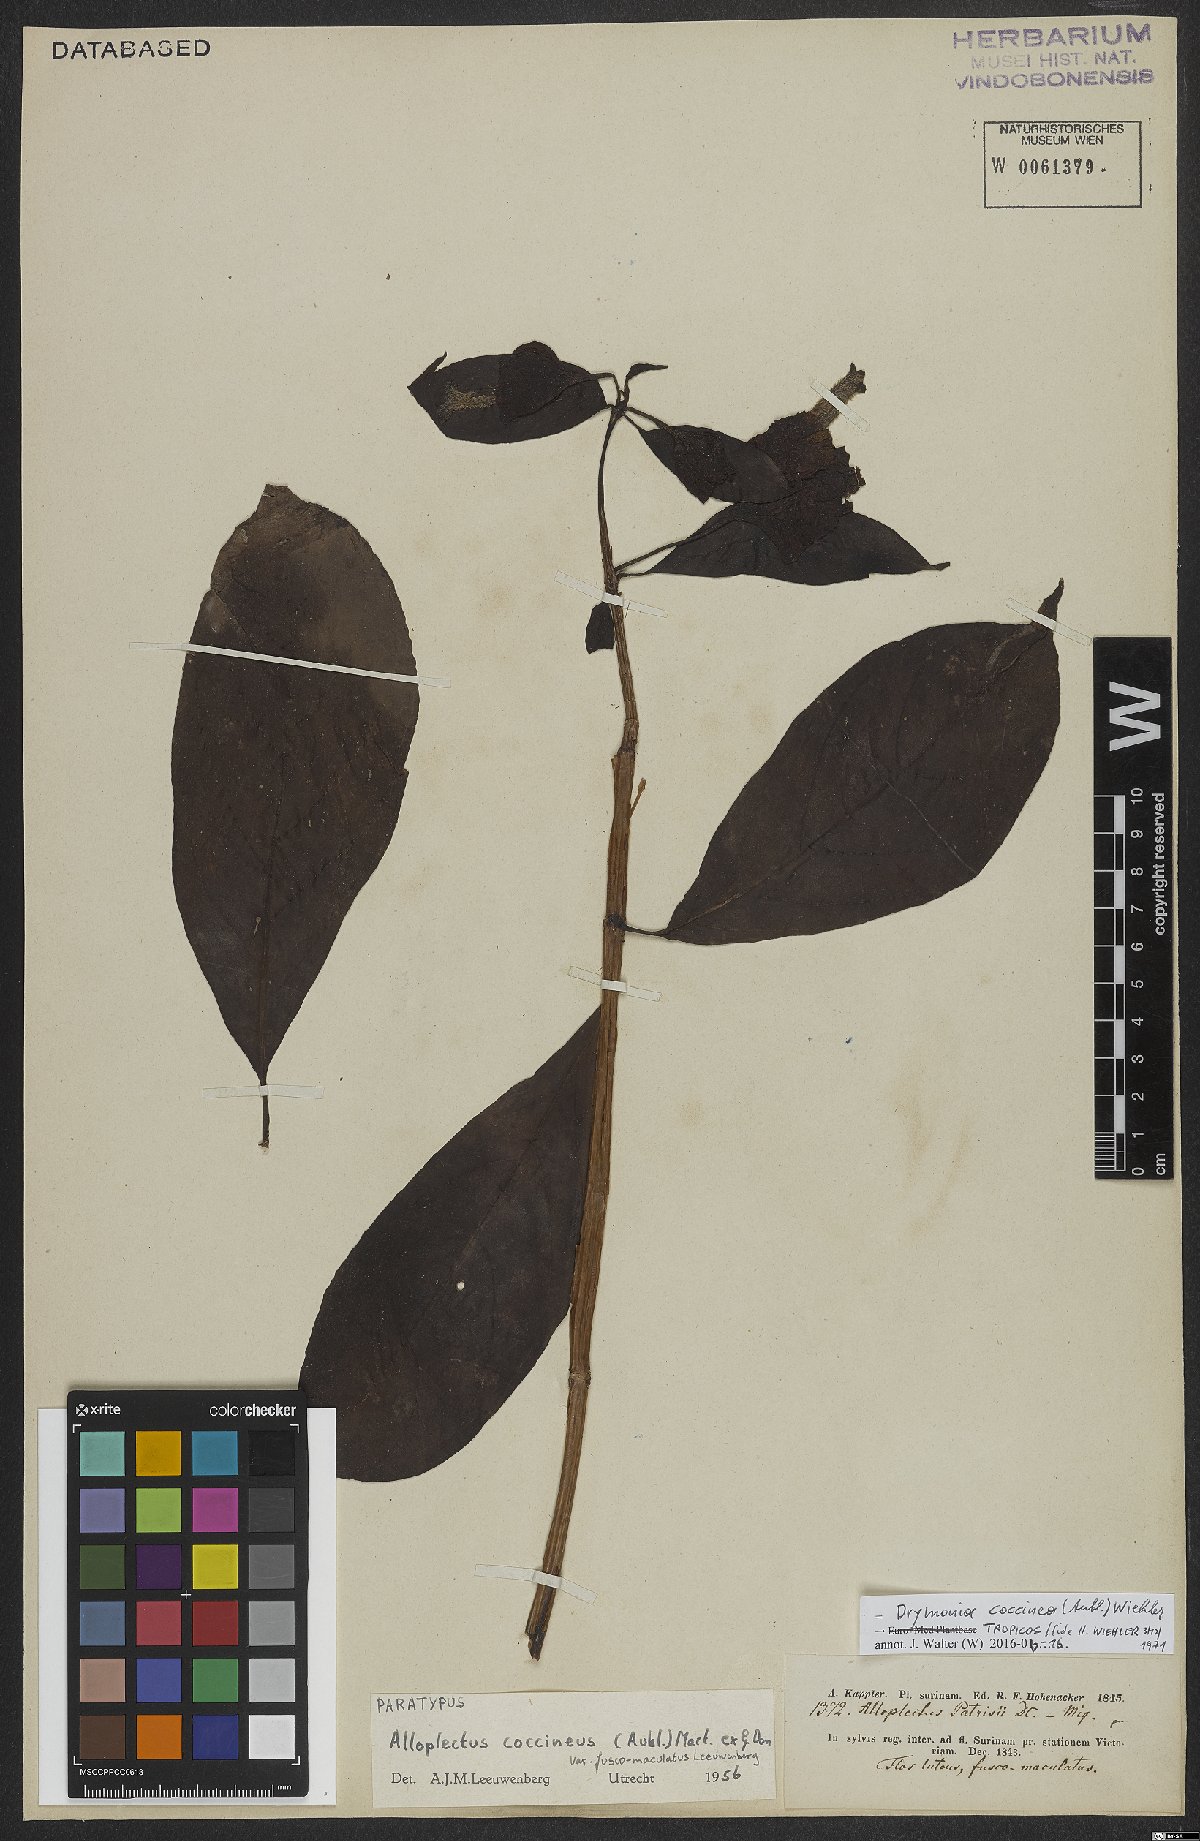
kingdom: Plantae
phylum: Tracheophyta
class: Magnoliopsida
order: Lamiales
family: Gesneriaceae
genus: Drymonia
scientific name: Drymonia coccinea
